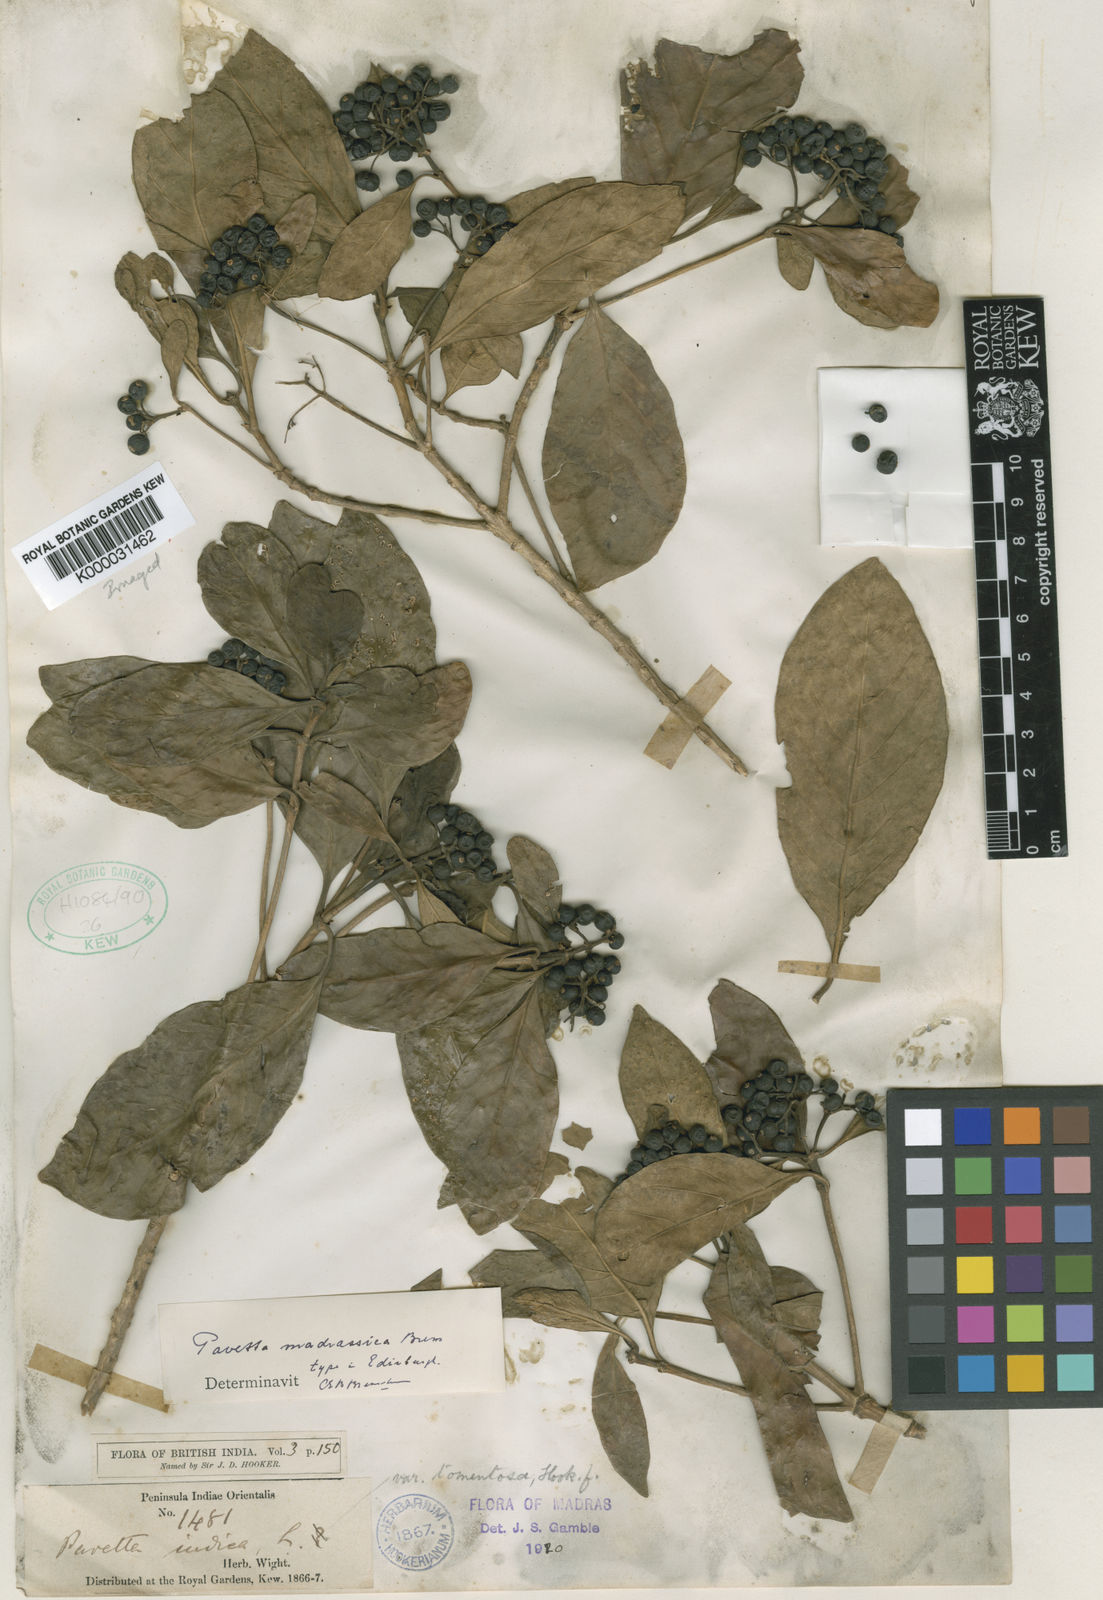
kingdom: Plantae
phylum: Tracheophyta
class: Magnoliopsida
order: Gentianales
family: Rubiaceae
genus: Pavetta
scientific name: Pavetta madrassica
